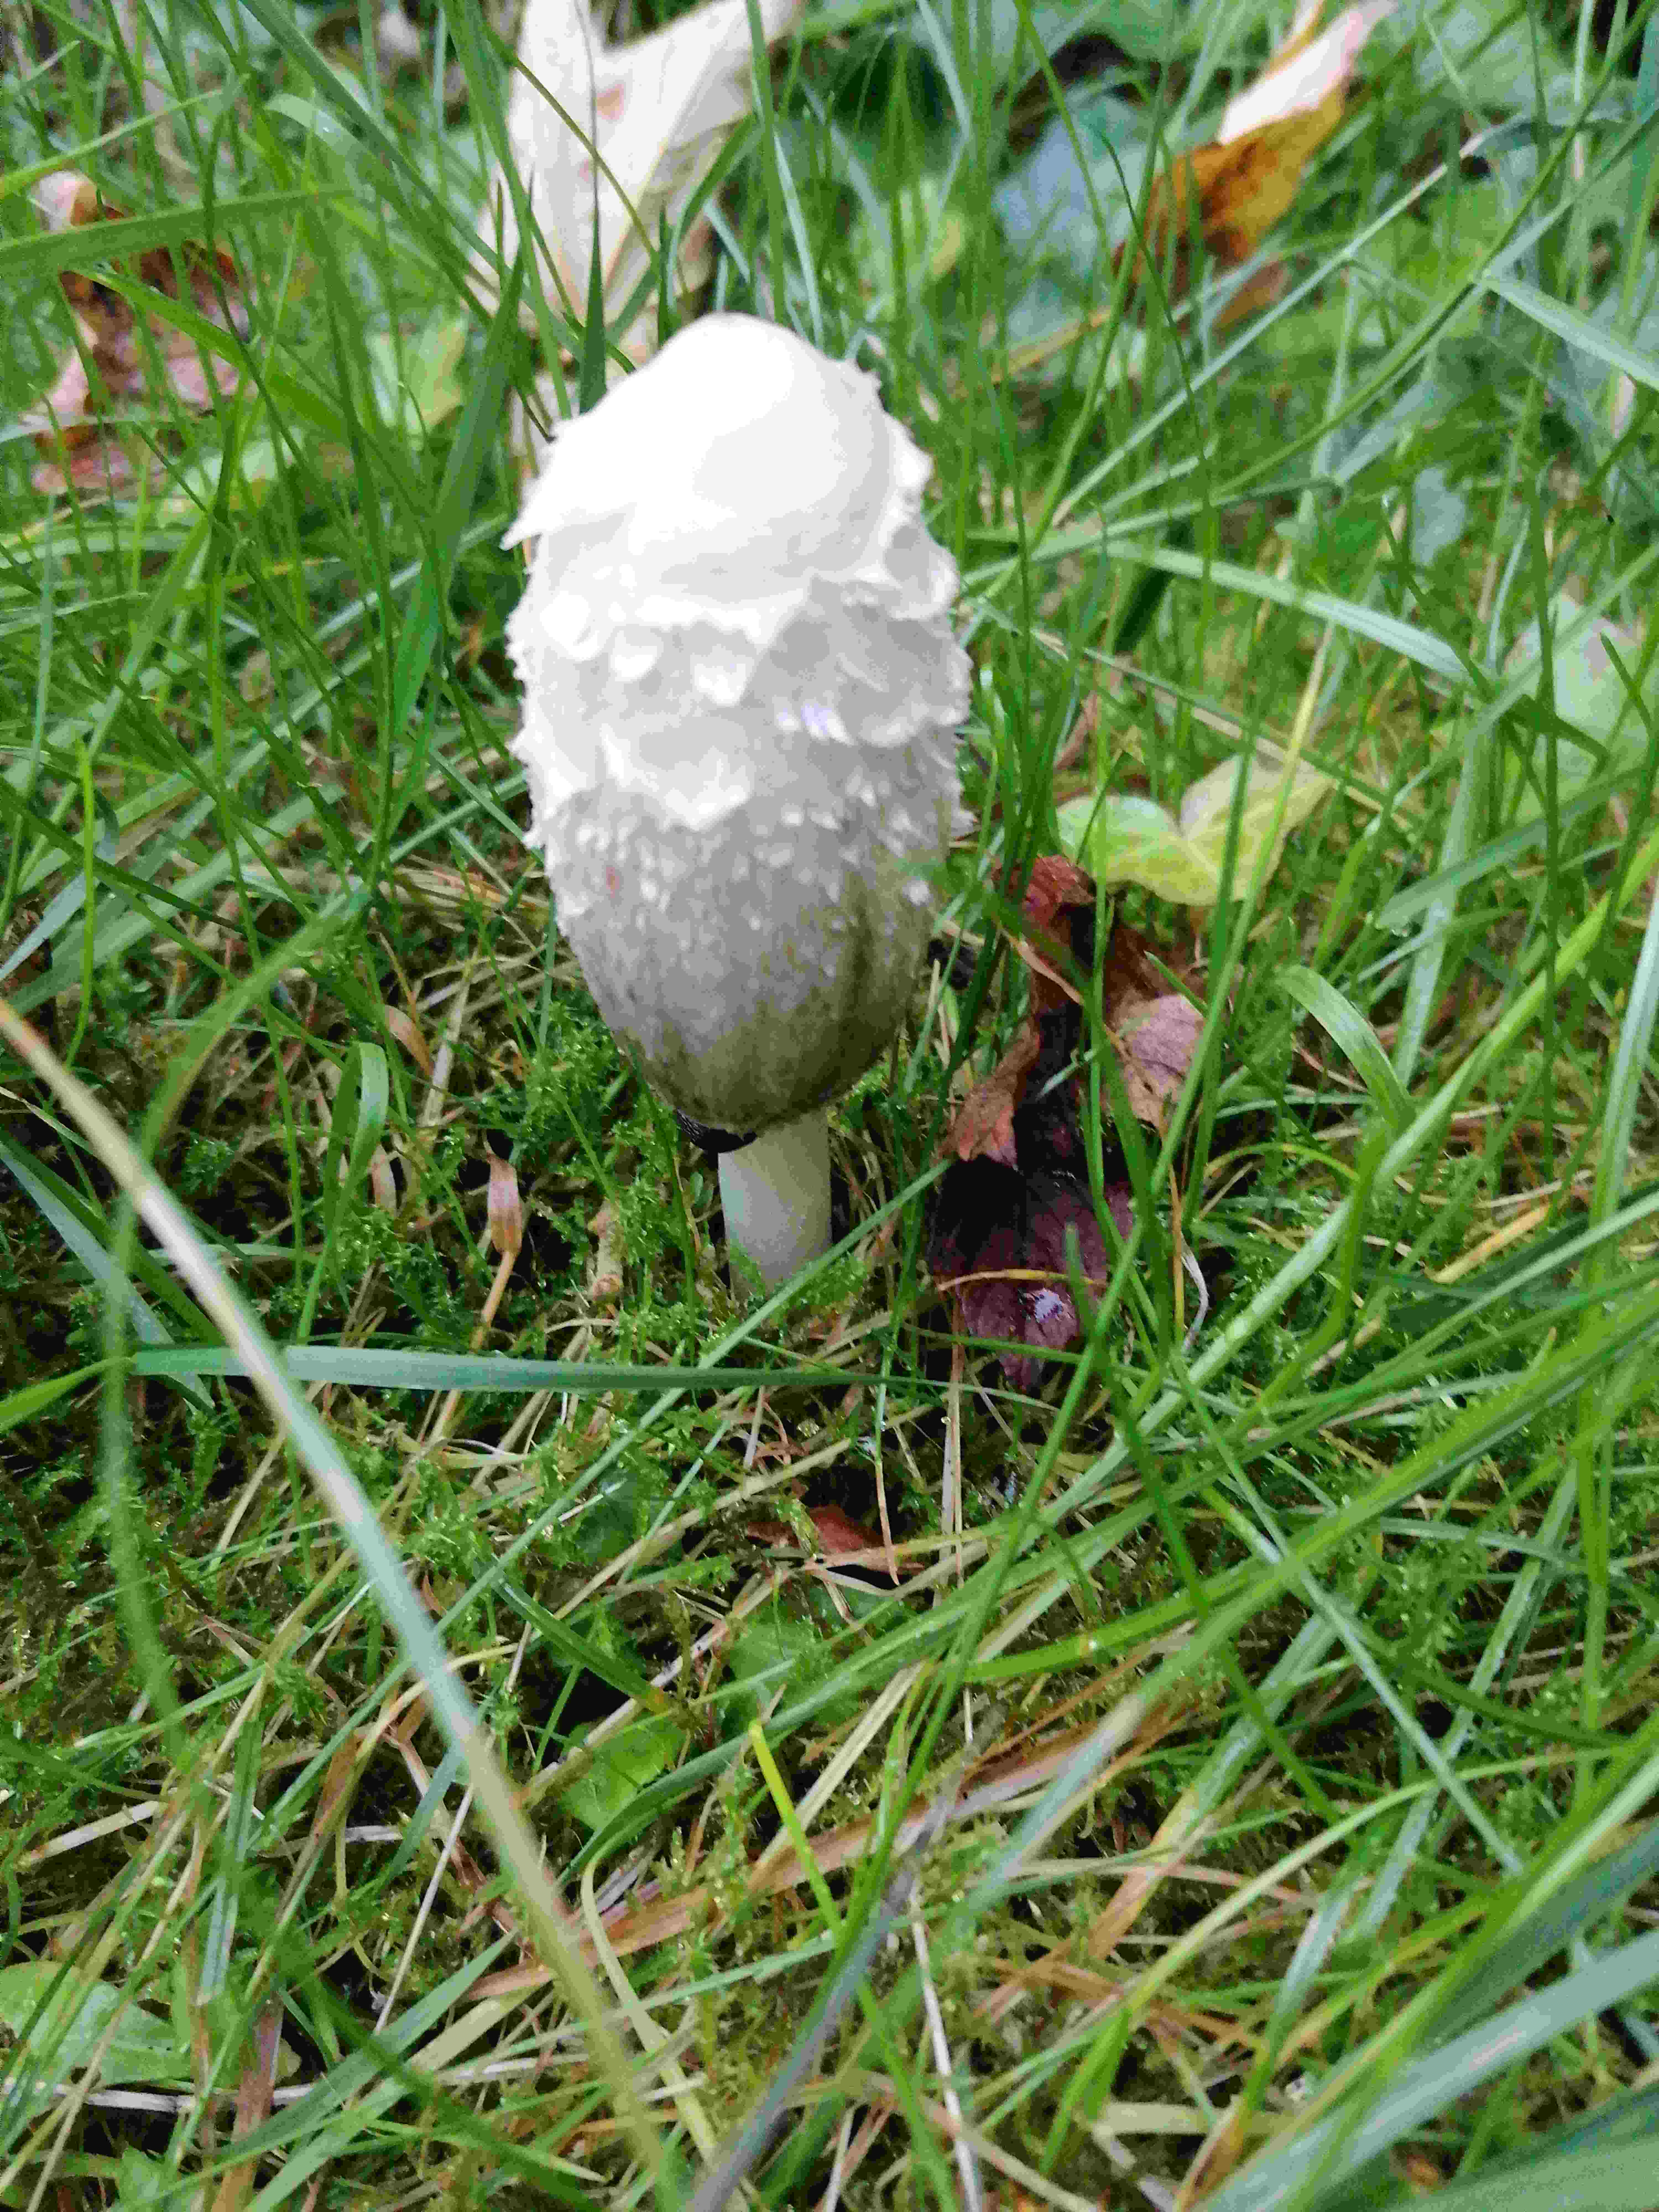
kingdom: Fungi
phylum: Basidiomycota
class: Agaricomycetes
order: Agaricales
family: Agaricaceae
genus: Coprinus
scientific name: Coprinus comatus
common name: stor parykhat
